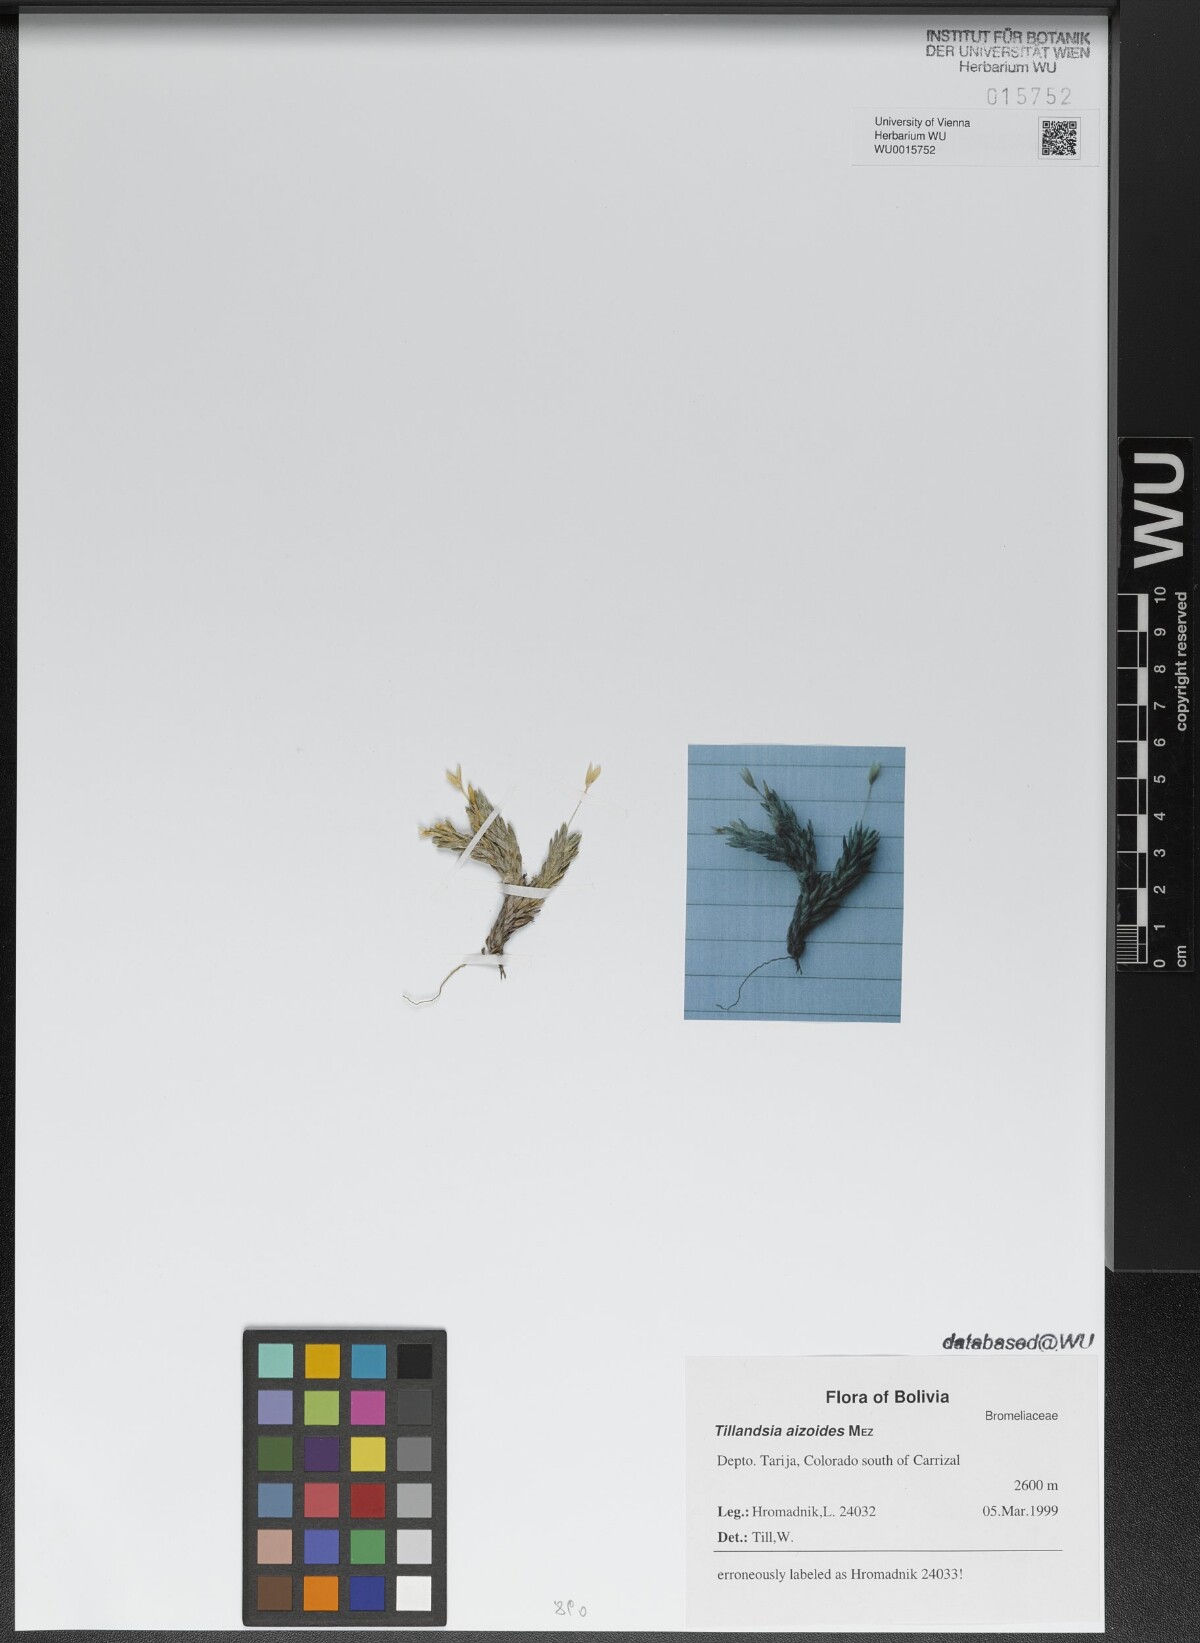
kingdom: Plantae
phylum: Tracheophyta
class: Liliopsida
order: Poales
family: Bromeliaceae
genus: Tillandsia
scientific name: Tillandsia aizoides
